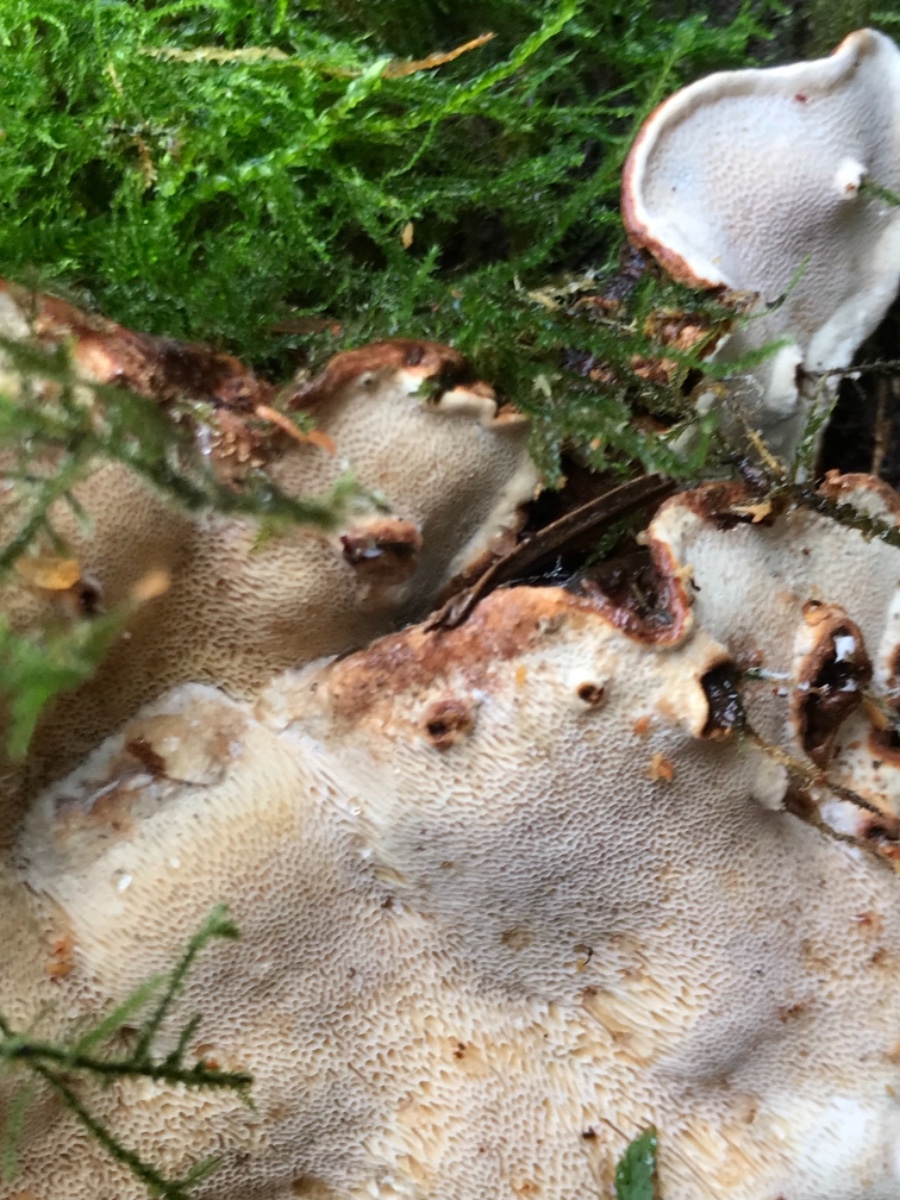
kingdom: Fungi
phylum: Basidiomycota
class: Agaricomycetes
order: Russulales
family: Bondarzewiaceae
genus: Heterobasidion
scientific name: Heterobasidion annosum
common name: almindelig rodfordærver
